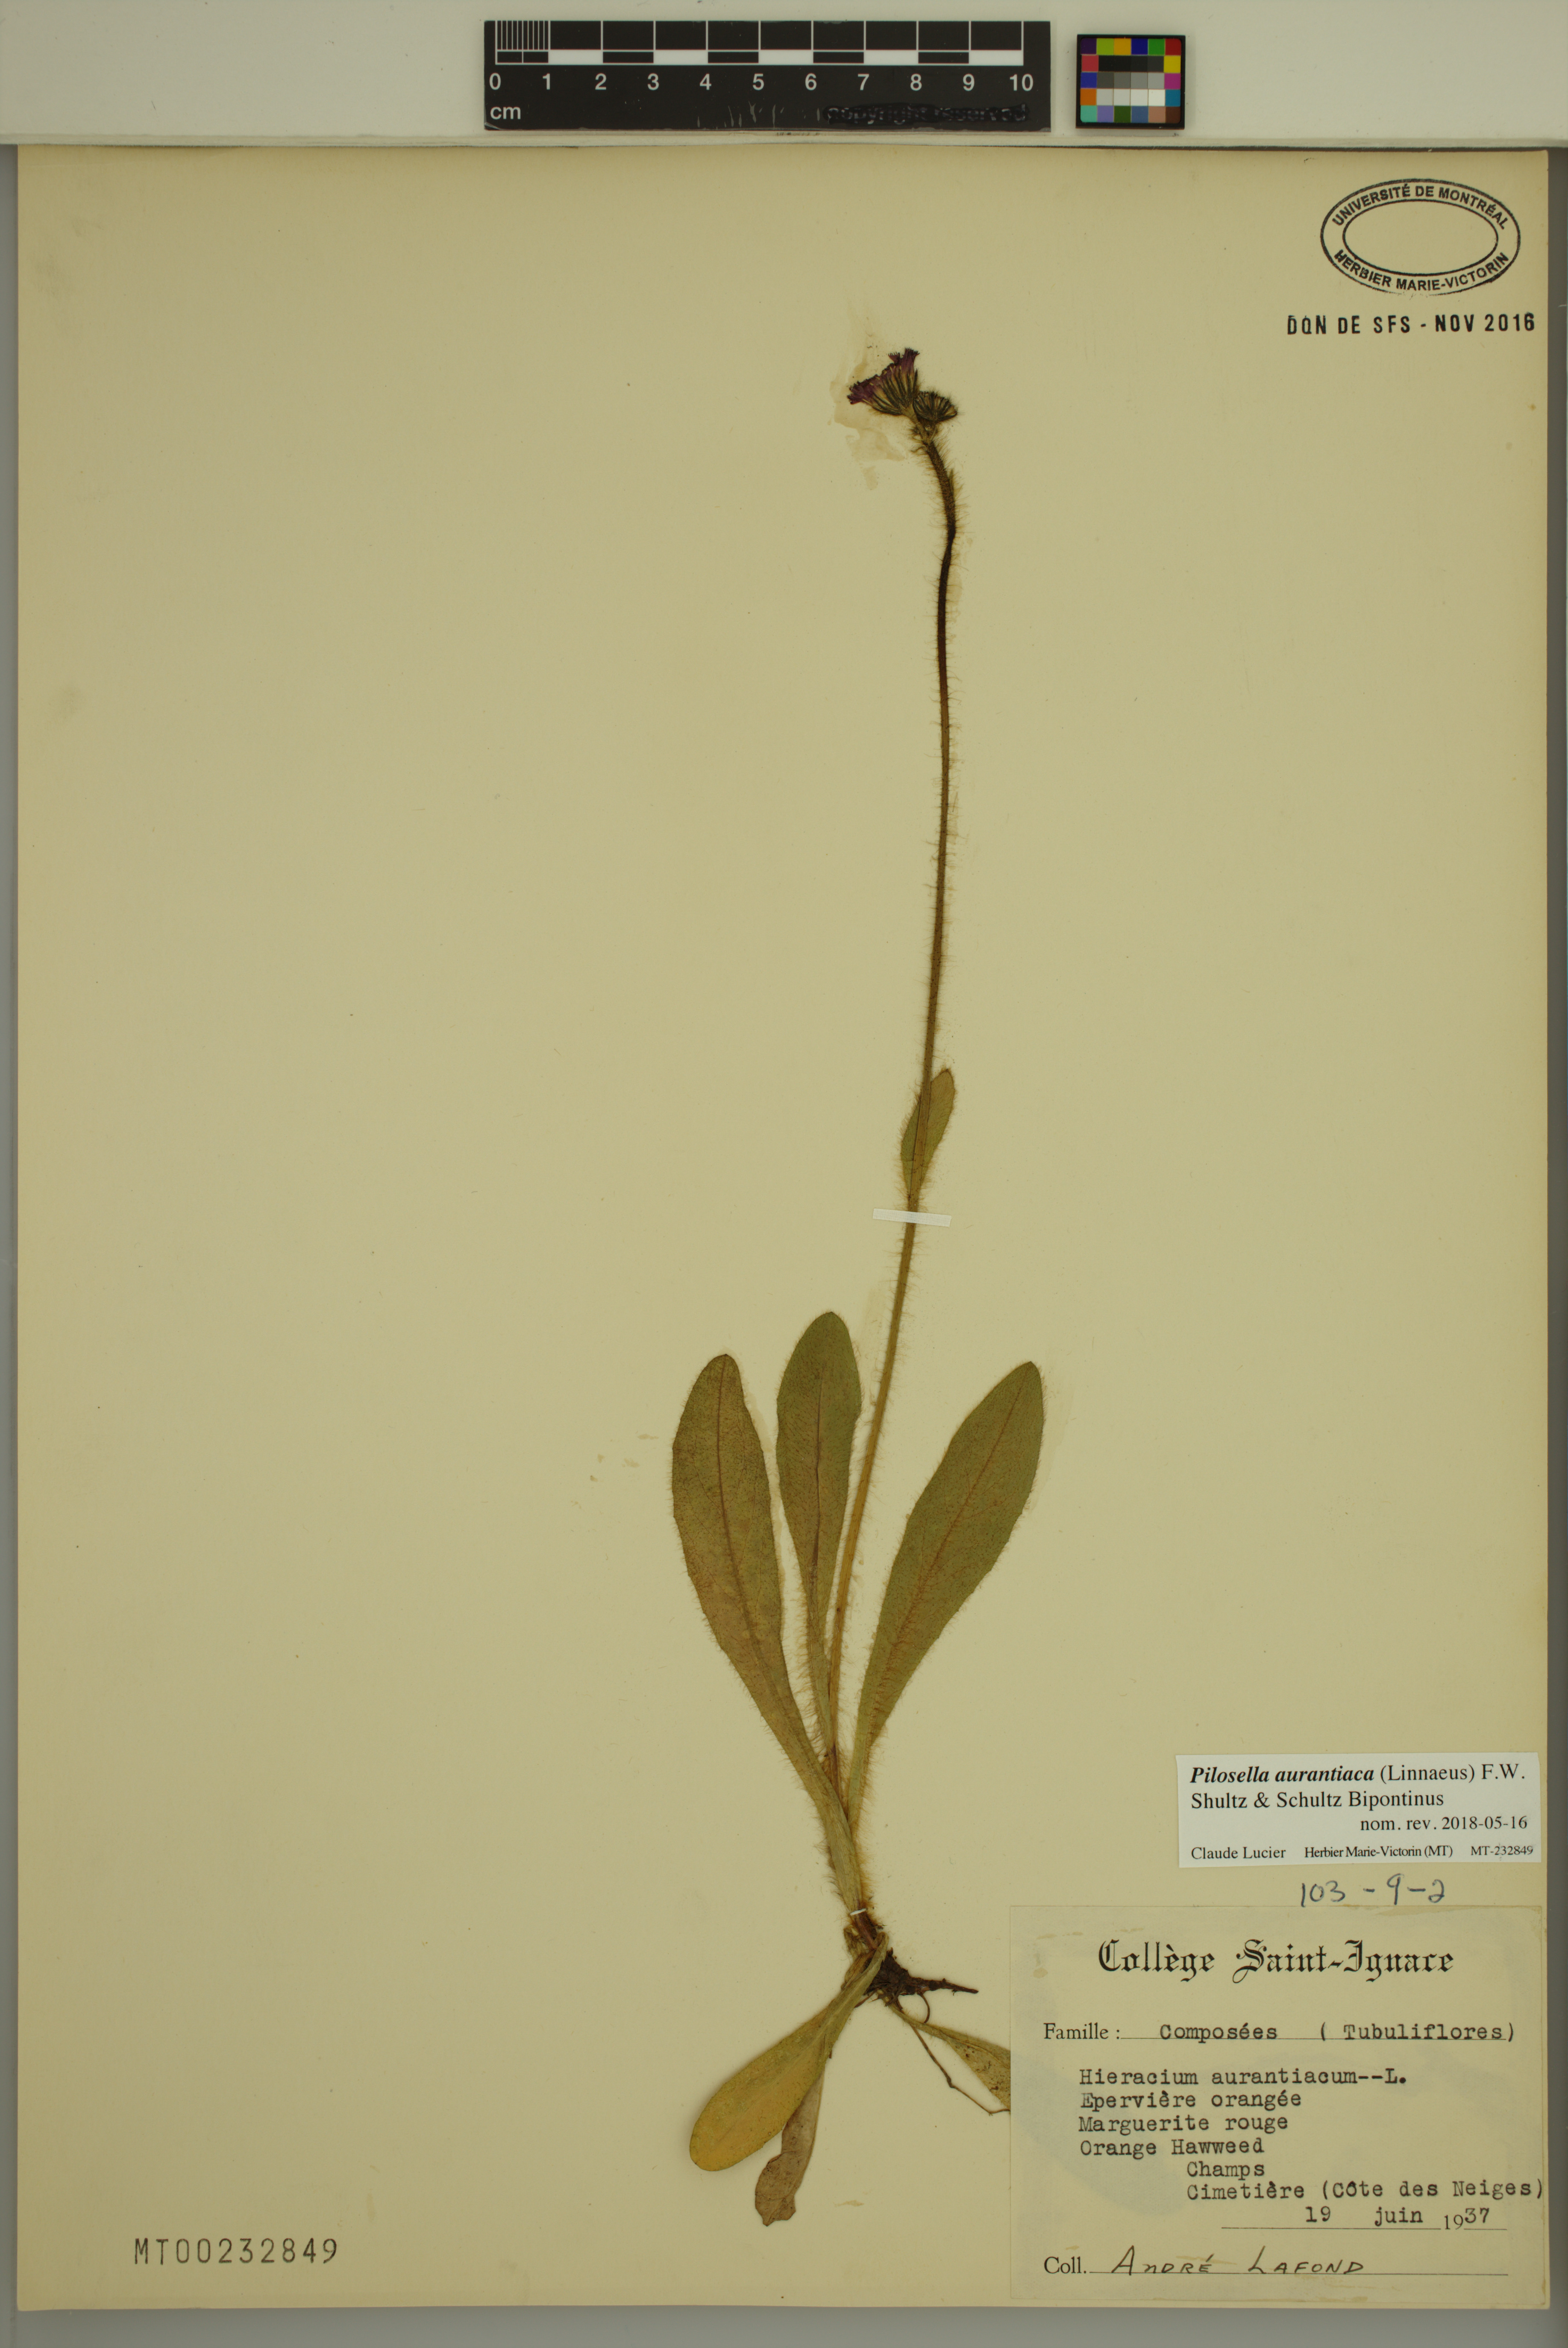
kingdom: Plantae
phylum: Tracheophyta
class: Magnoliopsida
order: Asterales
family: Asteraceae
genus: Pilosella
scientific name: Pilosella aurantiaca
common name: Fox-and-cubs
